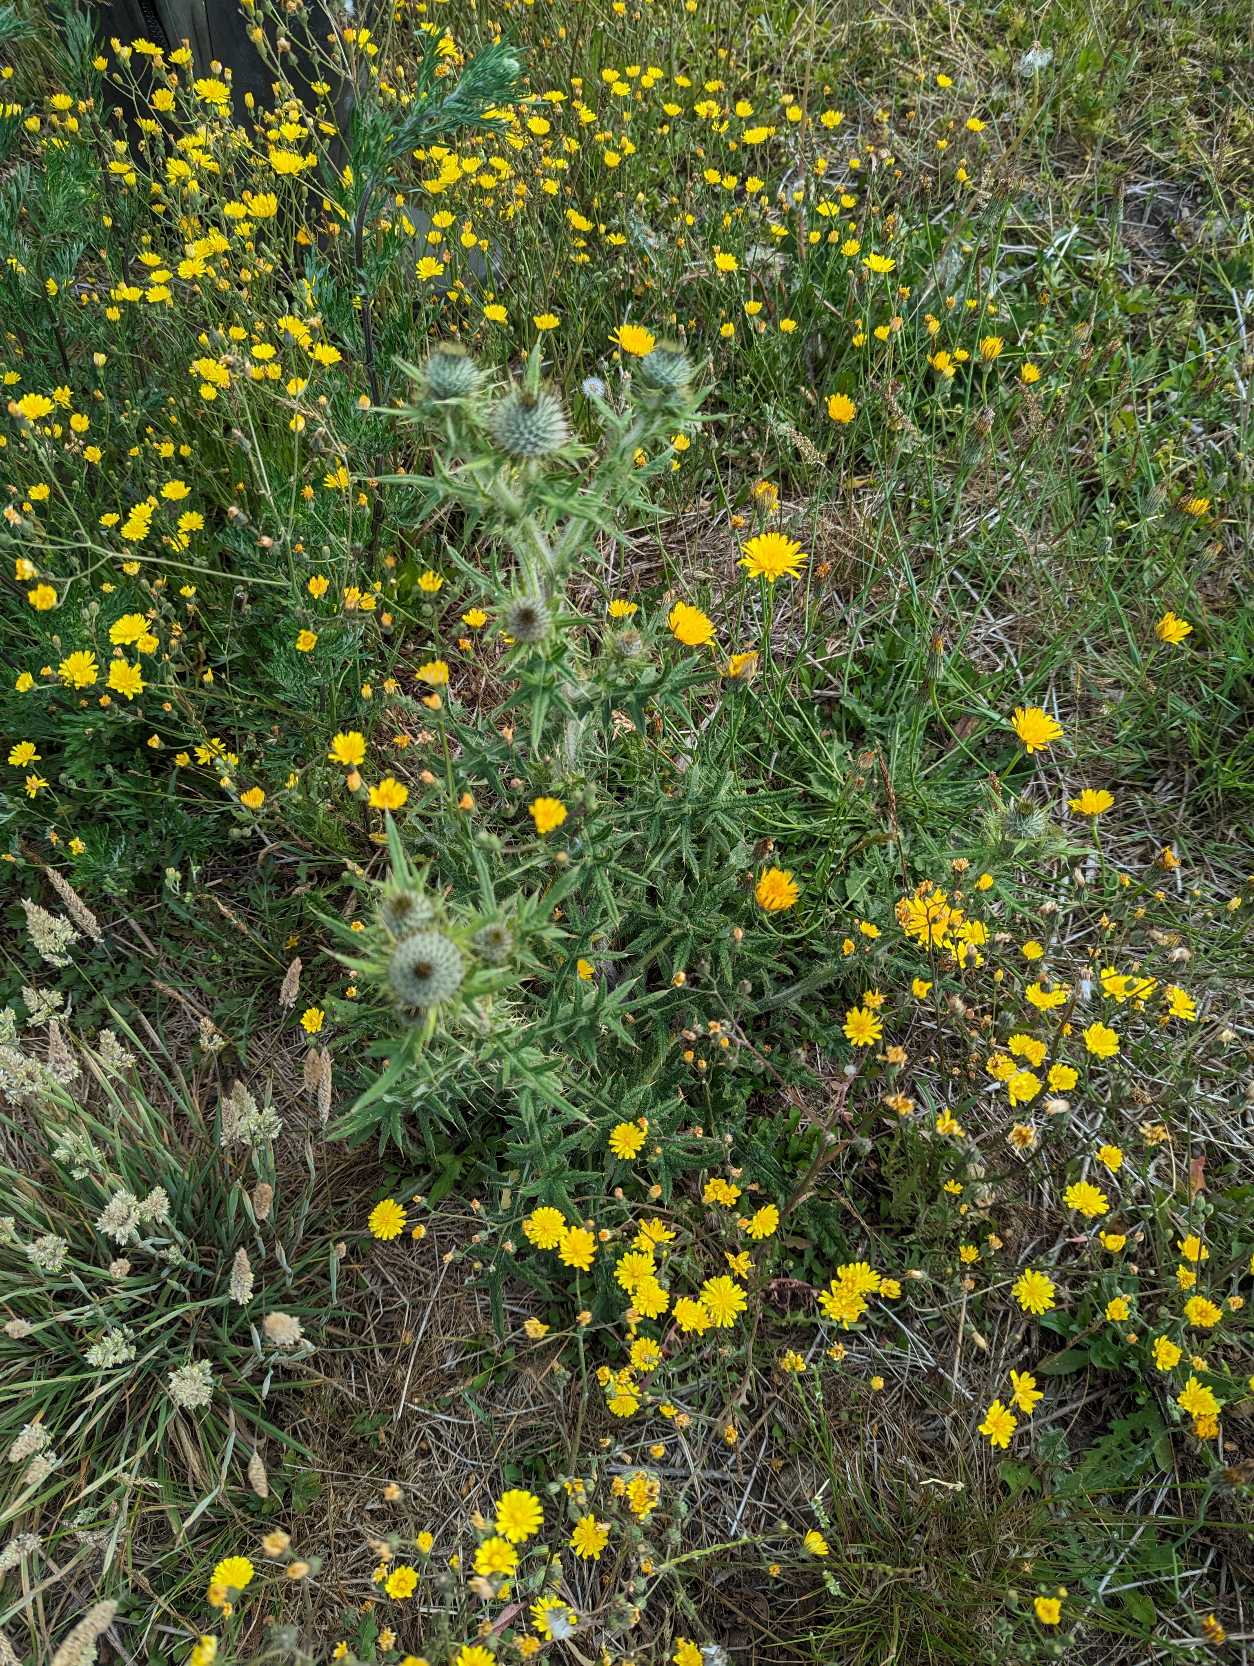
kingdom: Plantae
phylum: Tracheophyta
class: Magnoliopsida
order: Asterales
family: Asteraceae
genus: Cirsium
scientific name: Cirsium vulgare
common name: Horse-tidsel
